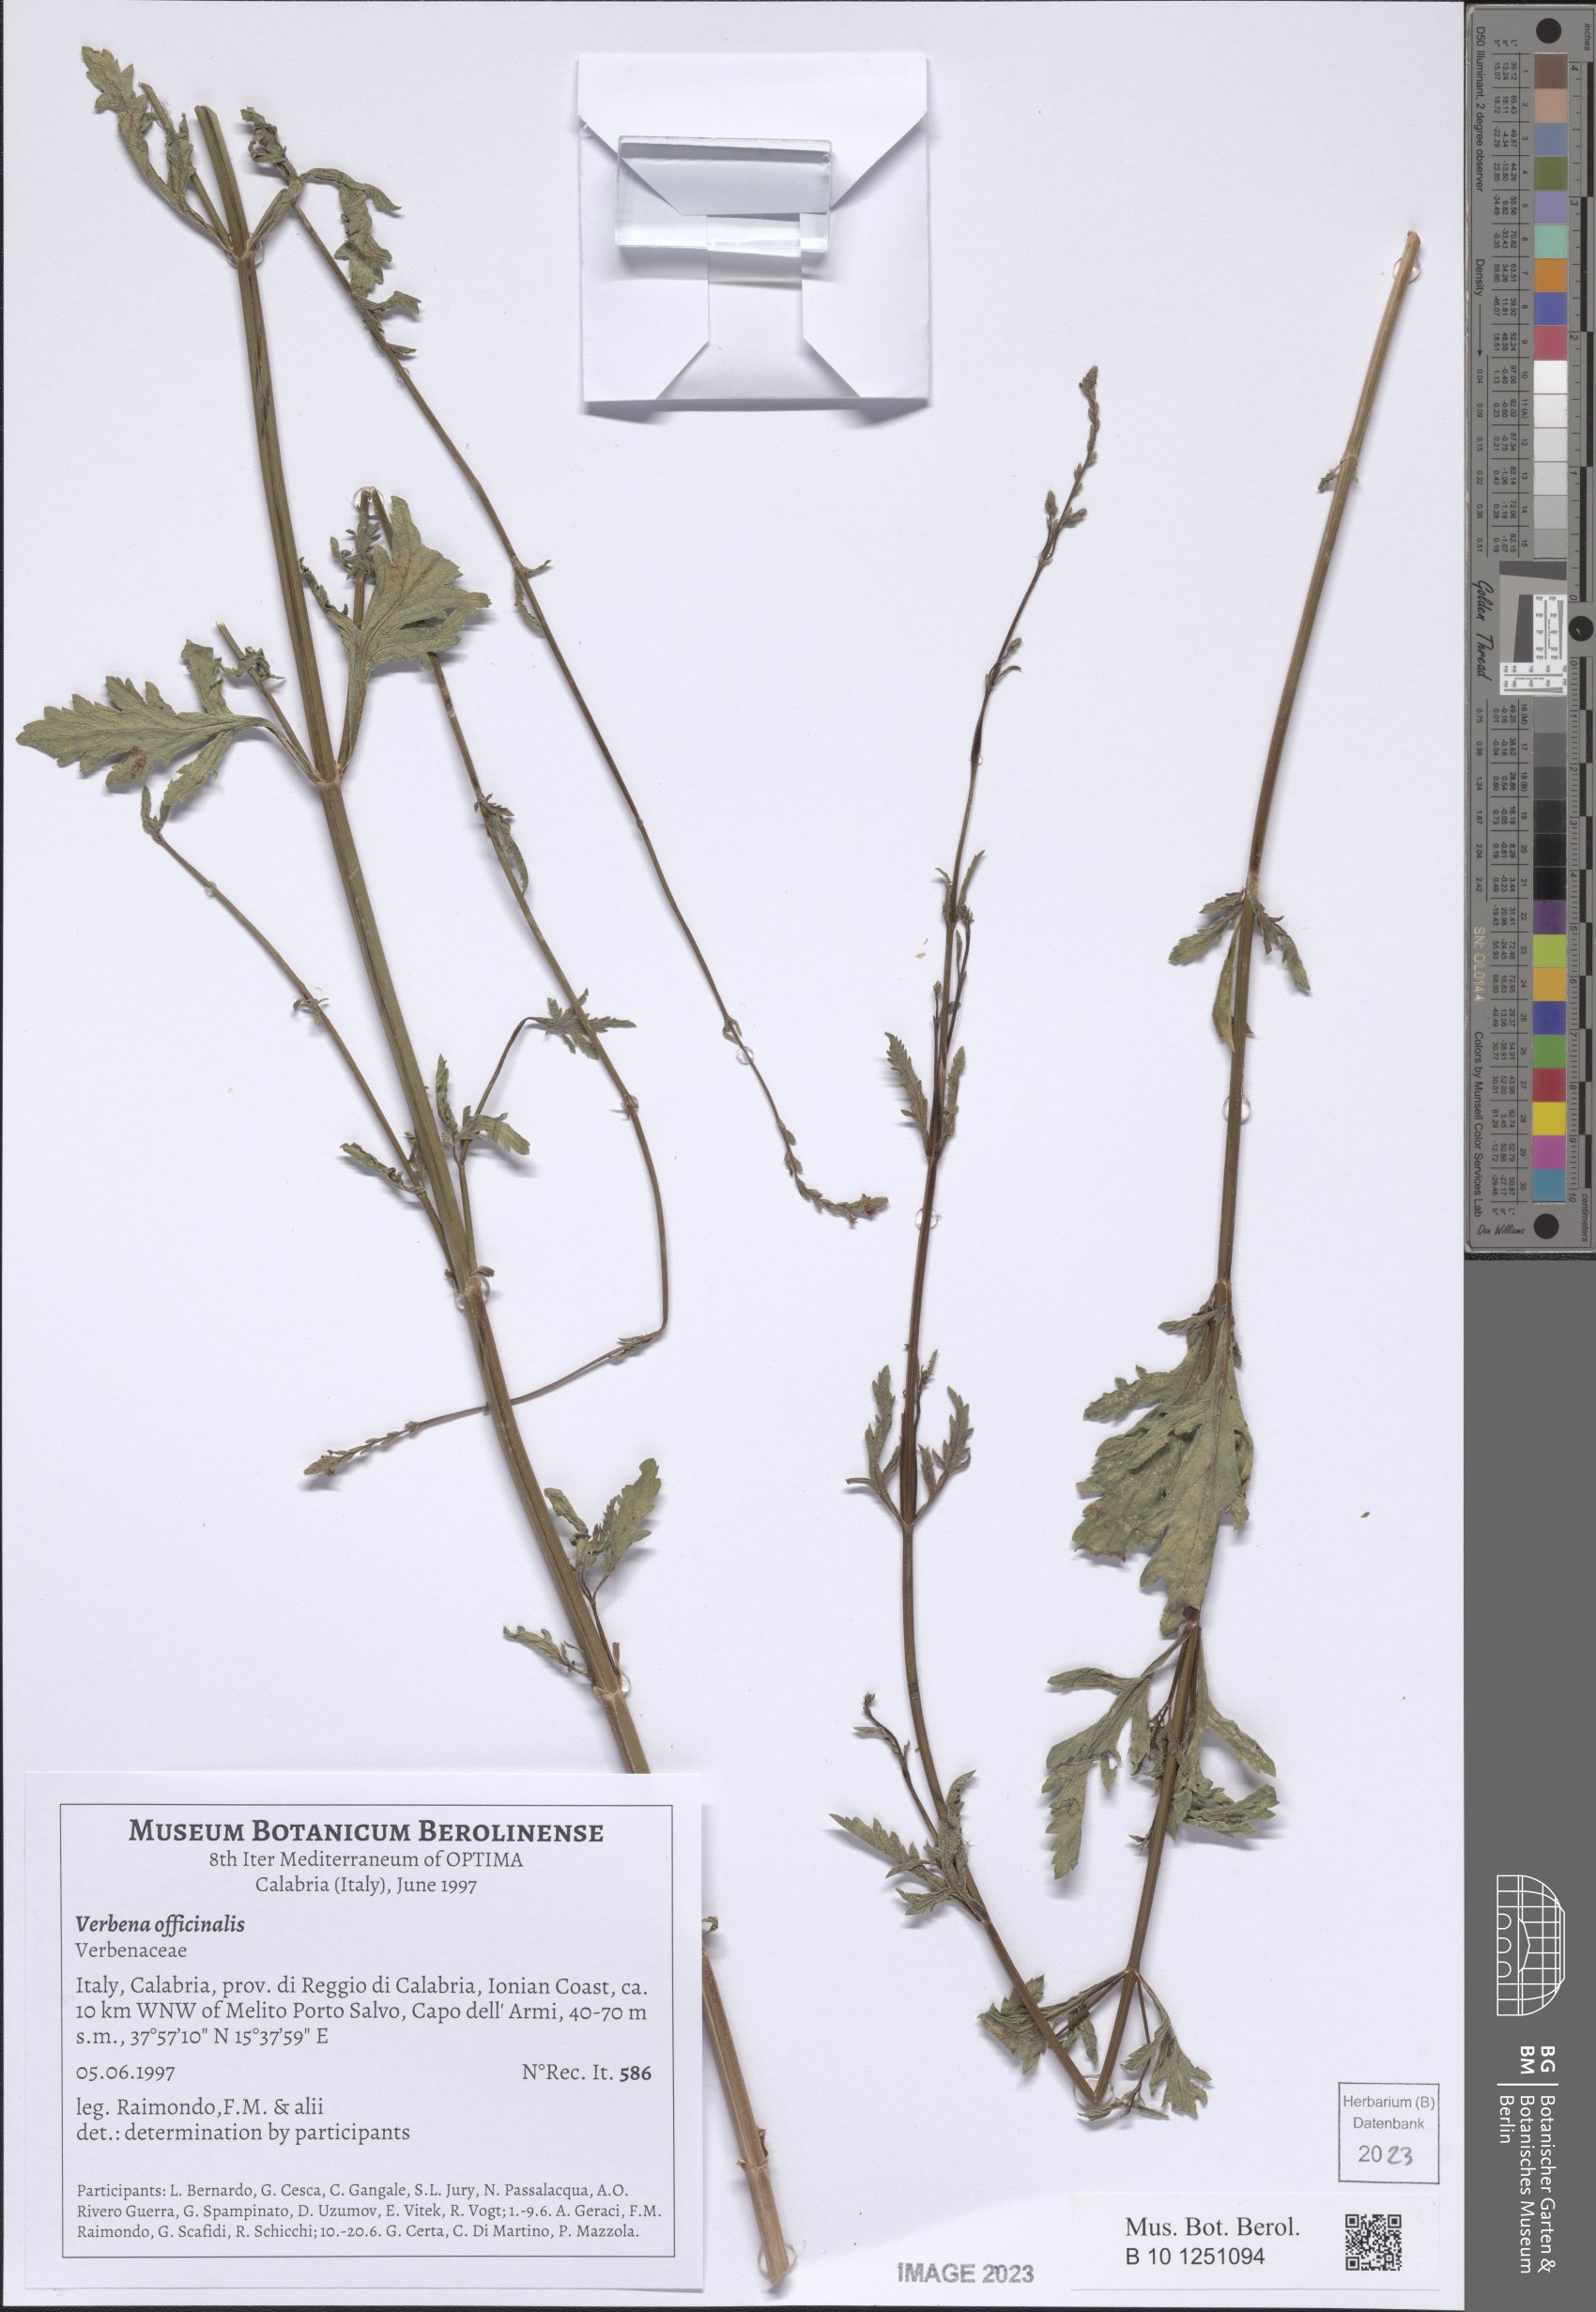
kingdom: Plantae
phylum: Tracheophyta
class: Magnoliopsida
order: Lamiales
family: Verbenaceae
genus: Verbena
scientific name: Verbena officinalis
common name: Vervain
